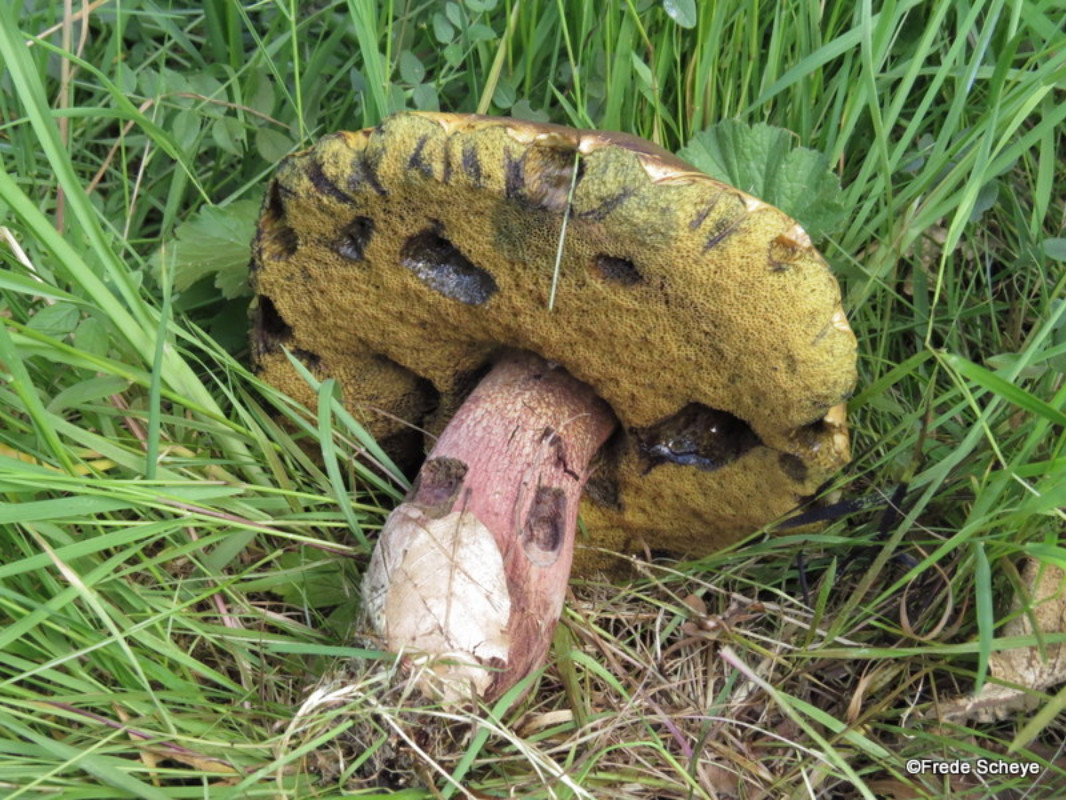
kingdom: Fungi
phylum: Basidiomycota
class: Agaricomycetes
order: Boletales
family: Boletaceae
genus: Suillellus
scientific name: Suillellus luridus
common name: netstokket indigorørhat
